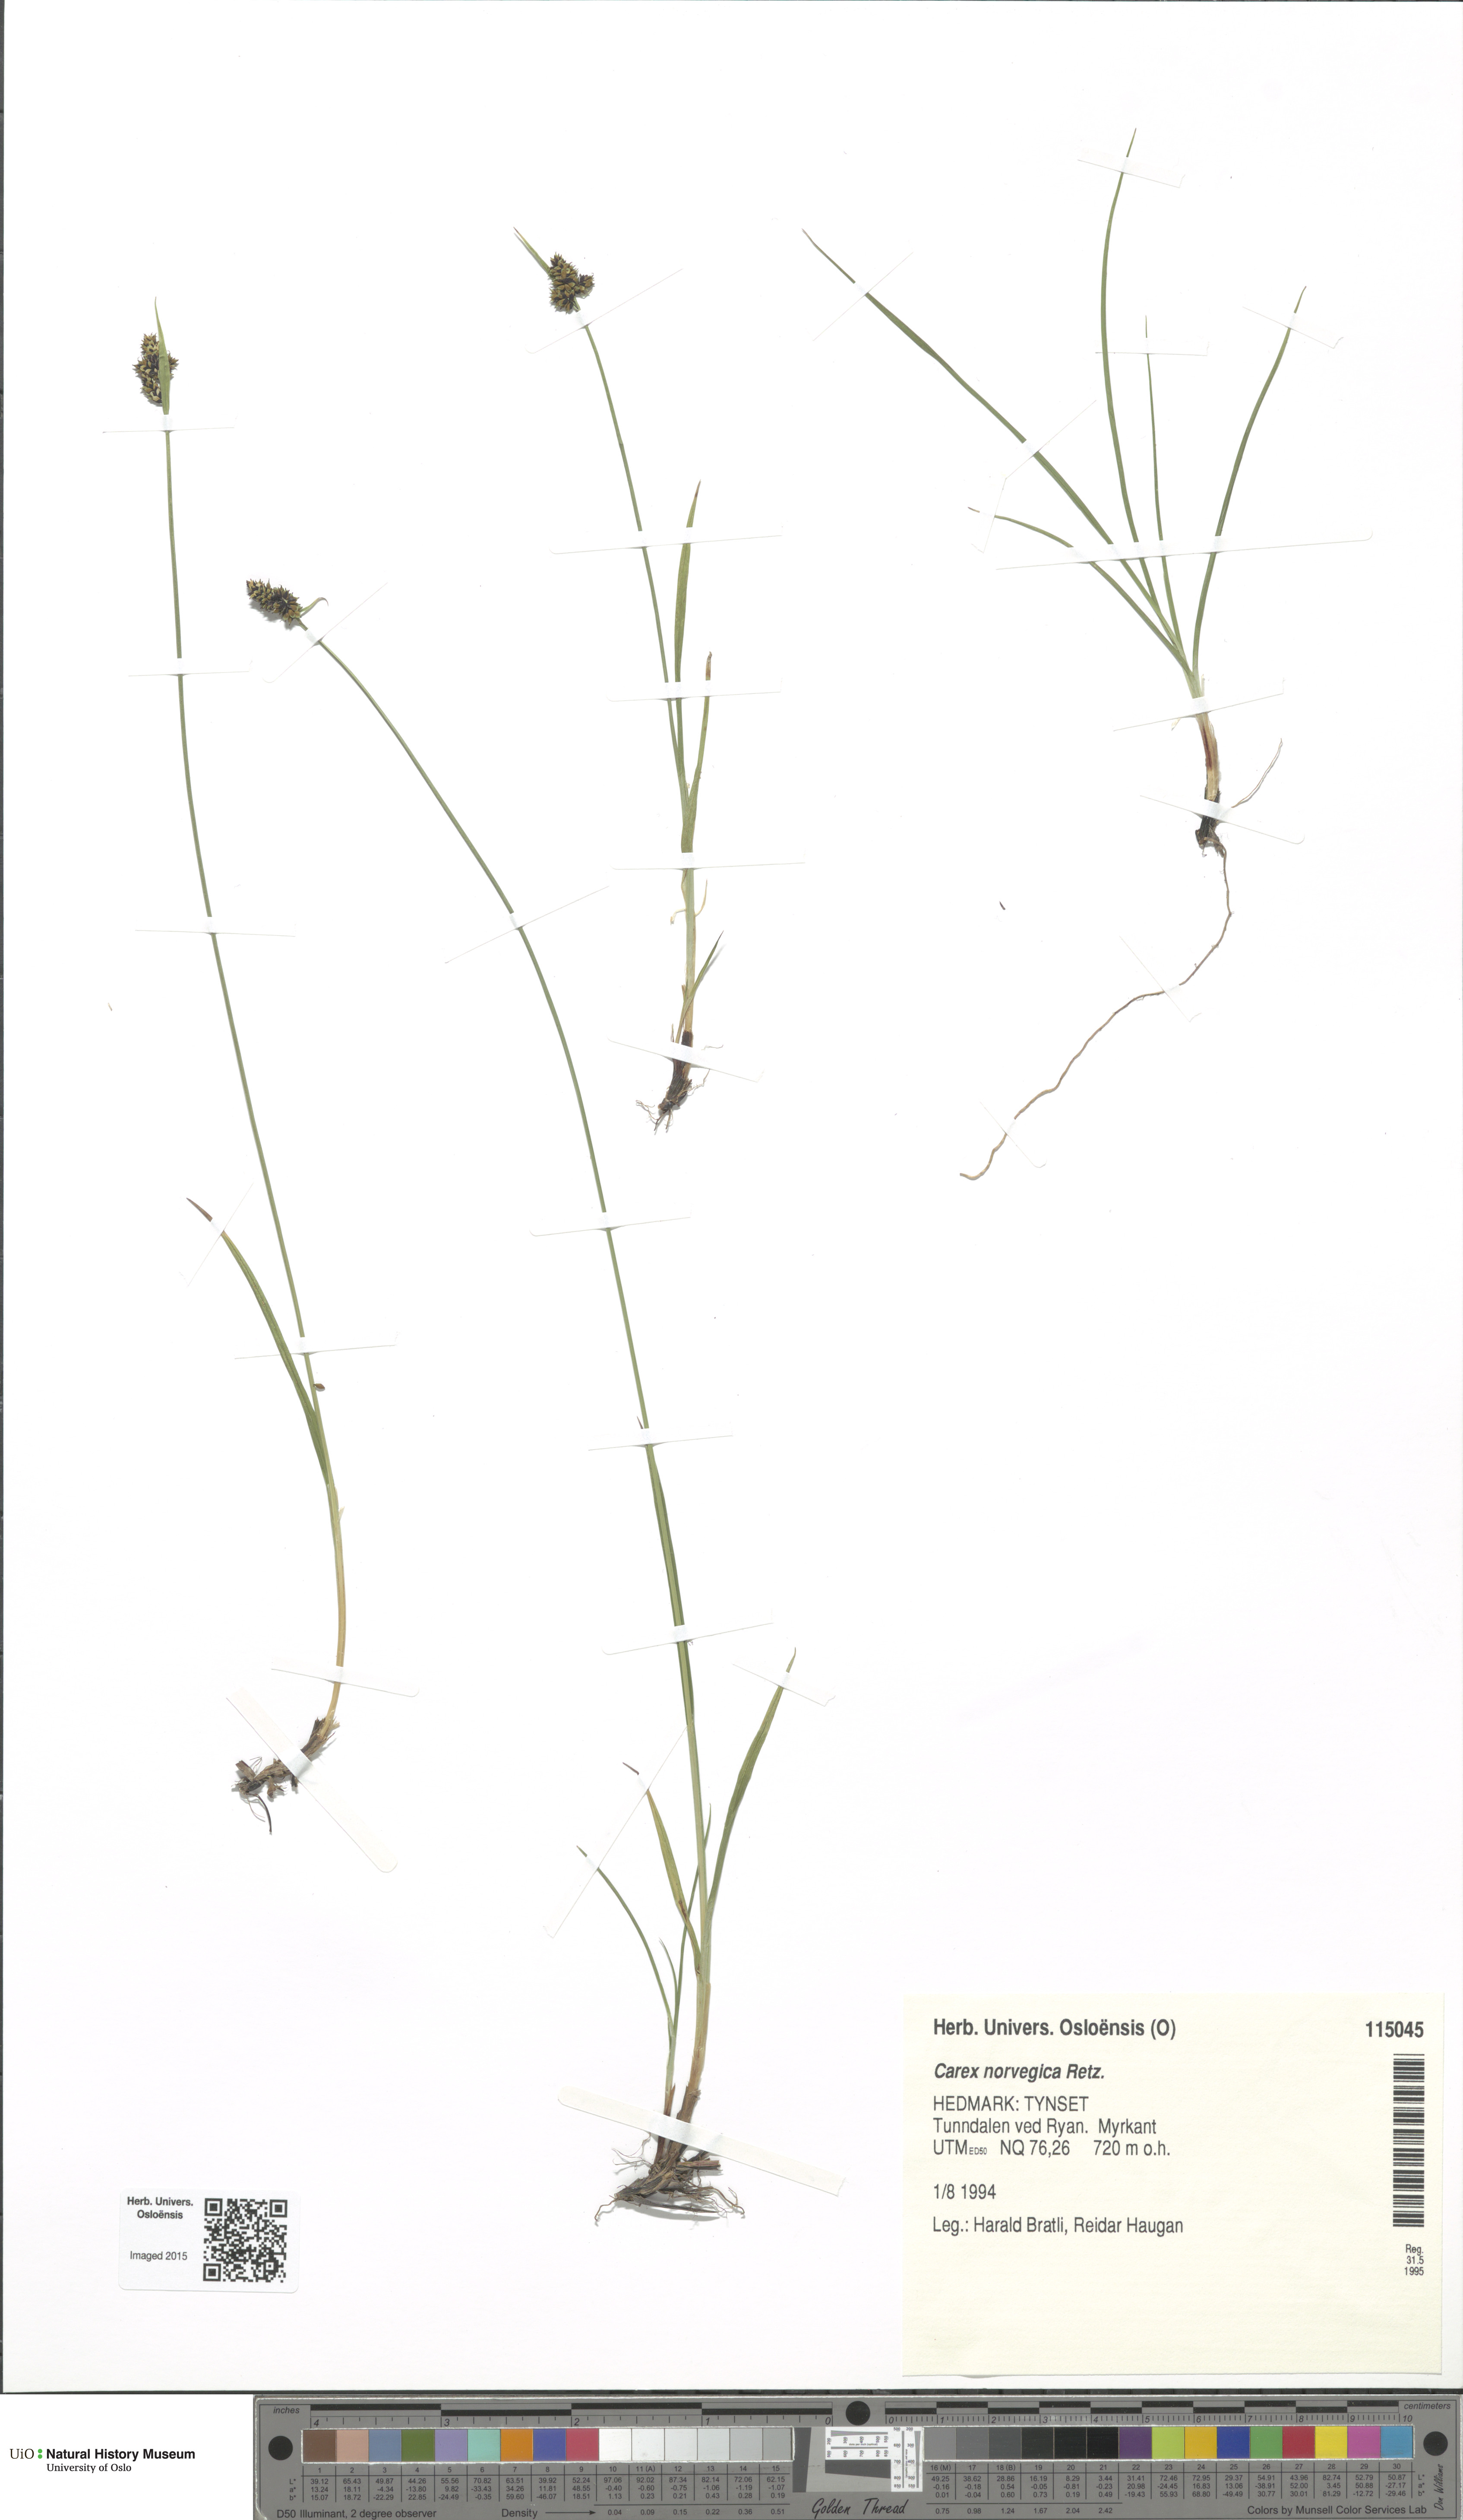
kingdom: Plantae
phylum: Tracheophyta
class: Liliopsida
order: Poales
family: Cyperaceae
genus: Carex
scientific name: Carex norvegica
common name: Close-headed alpine-sedge
